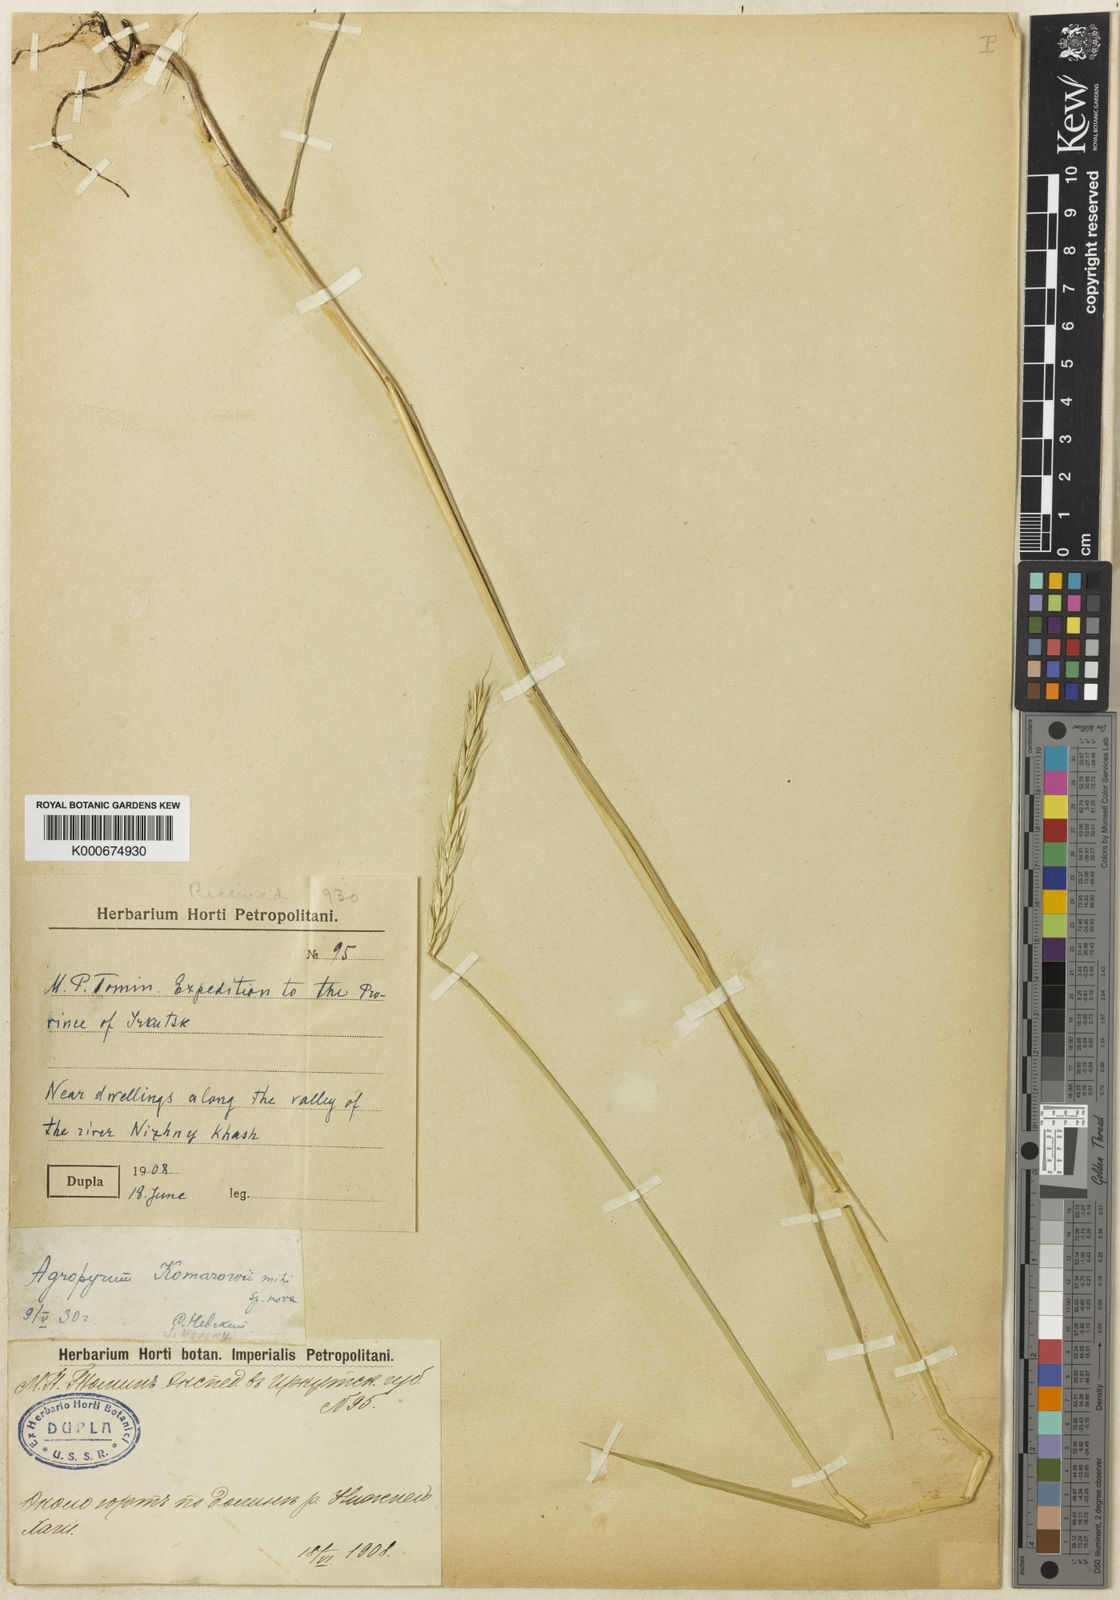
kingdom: Plantae
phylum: Tracheophyta
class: Liliopsida
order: Poales
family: Poaceae
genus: Elymus
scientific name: Elymus uralensis
